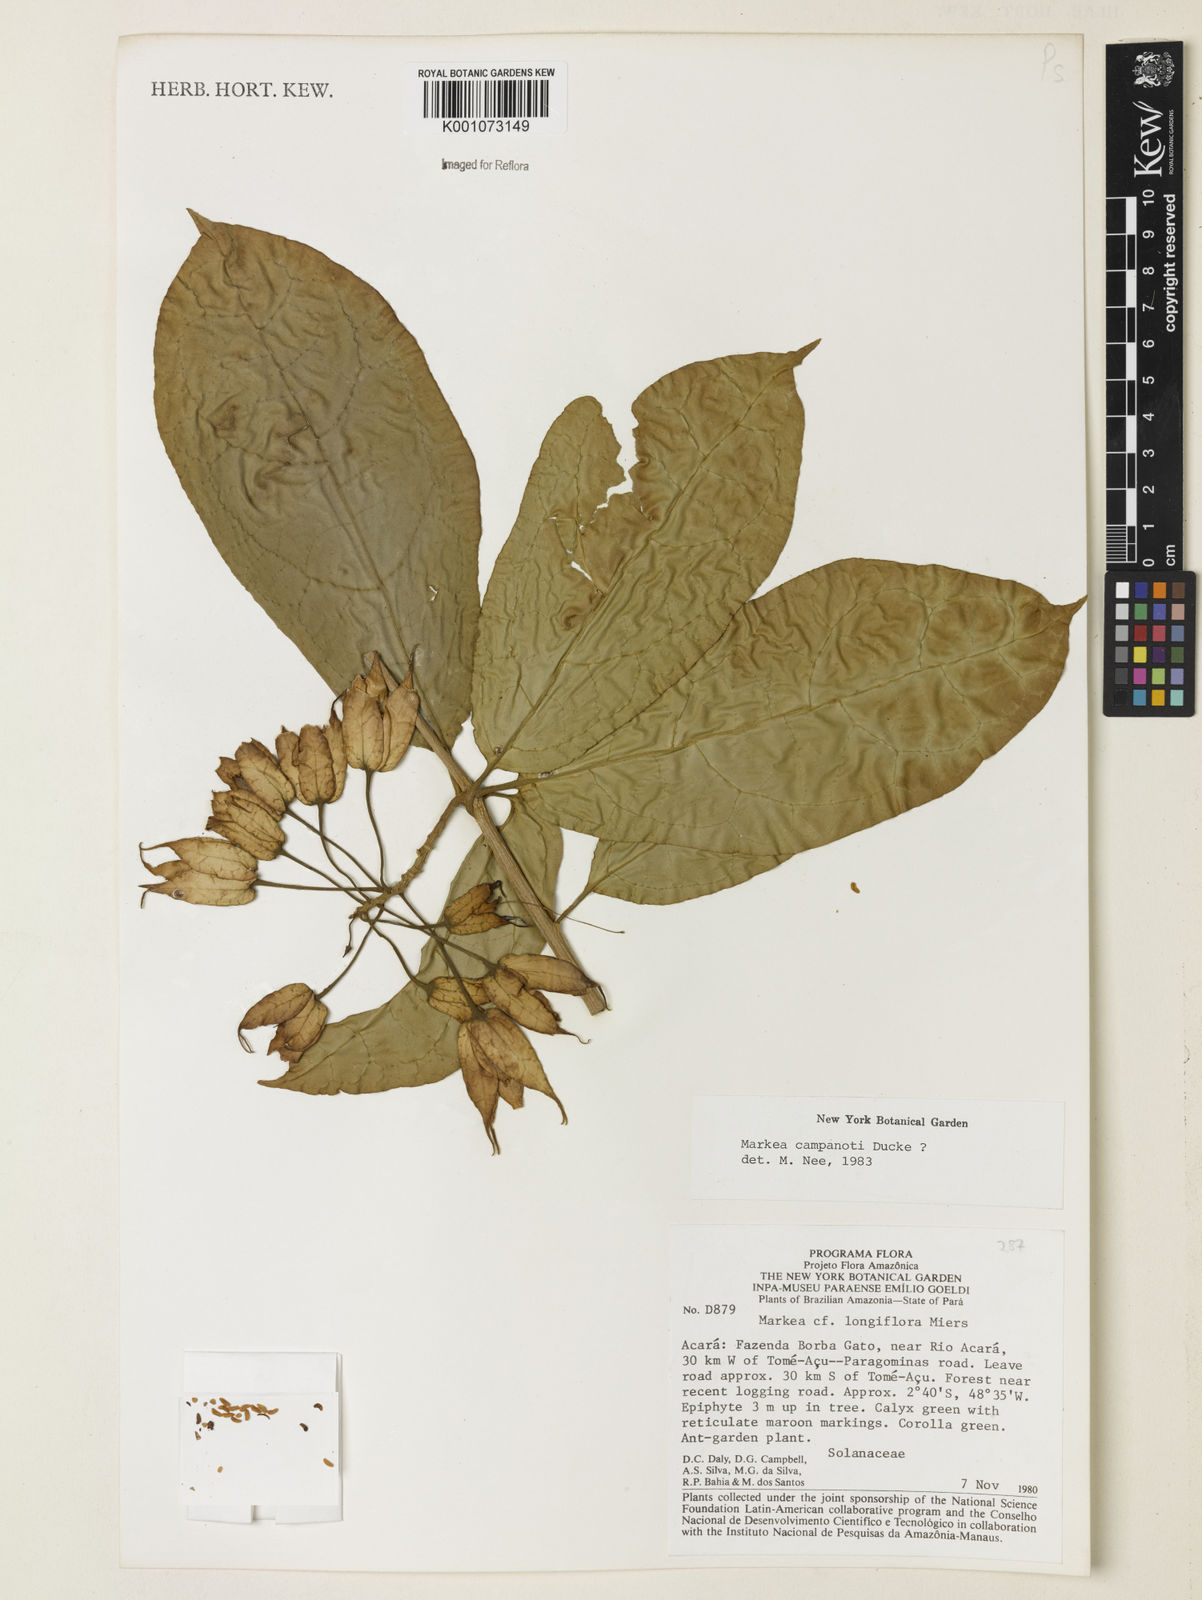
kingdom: Plantae
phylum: Tracheophyta
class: Magnoliopsida
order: Solanales
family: Solanaceae
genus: Markea
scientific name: Markea longiflora
